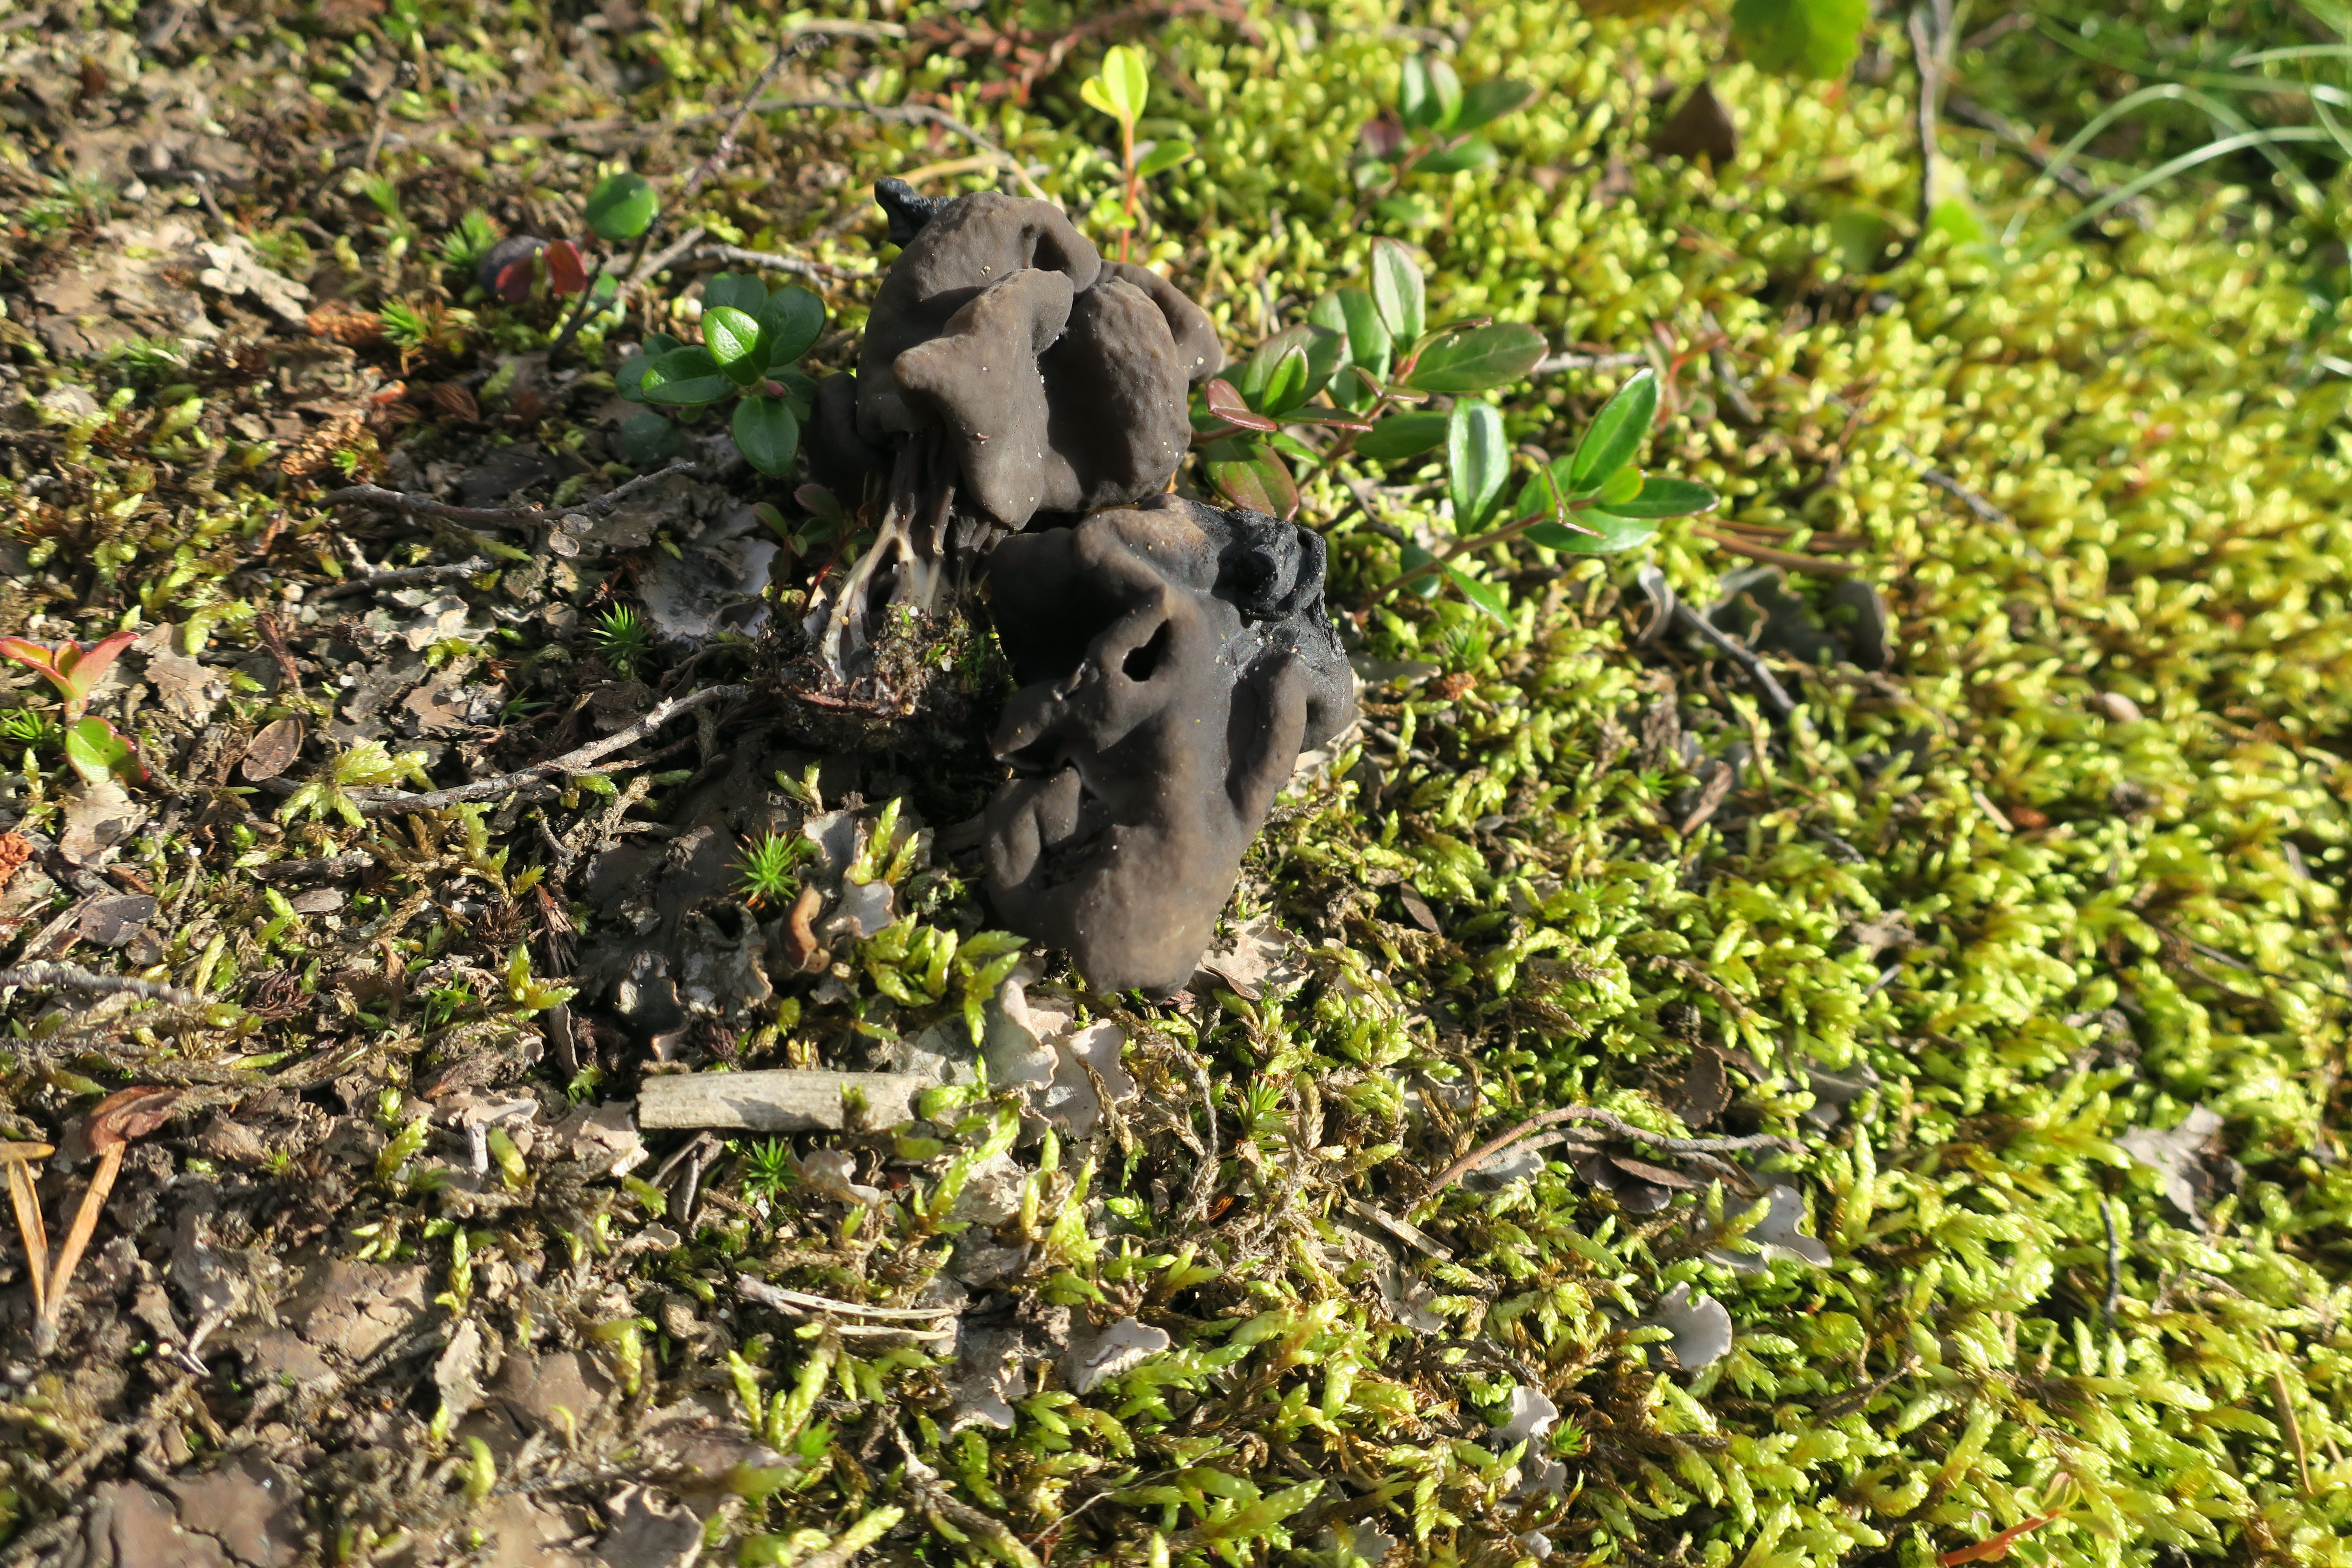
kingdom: Fungi
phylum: Ascomycota
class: Pezizomycetes
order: Pezizales
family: Helvellaceae
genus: Helvella
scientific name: Helvella lacunosa
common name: Elfin saddle
